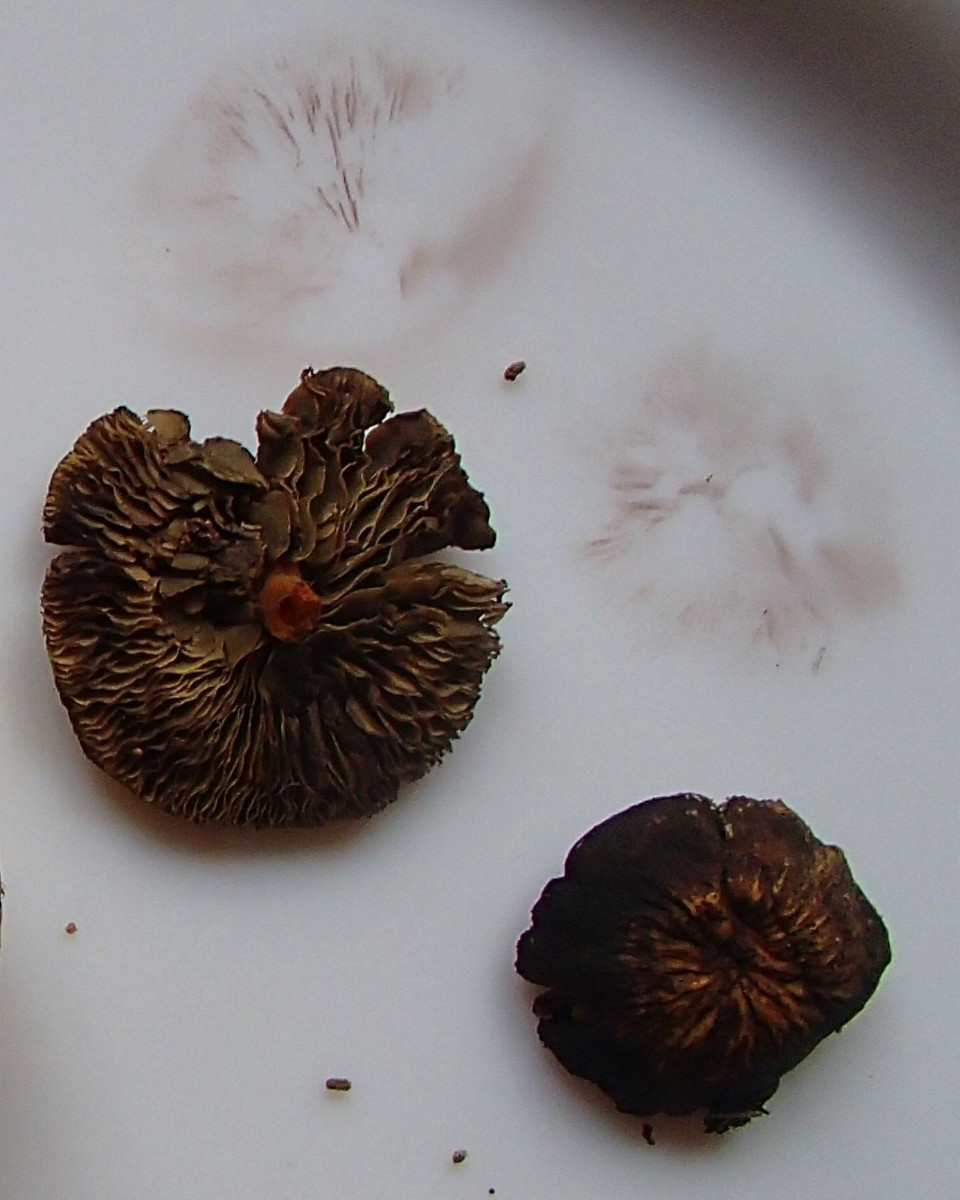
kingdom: Fungi
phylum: Basidiomycota
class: Agaricomycetes
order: Agaricales
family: Strophariaceae
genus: Hypholoma
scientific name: Hypholoma fasciculare
